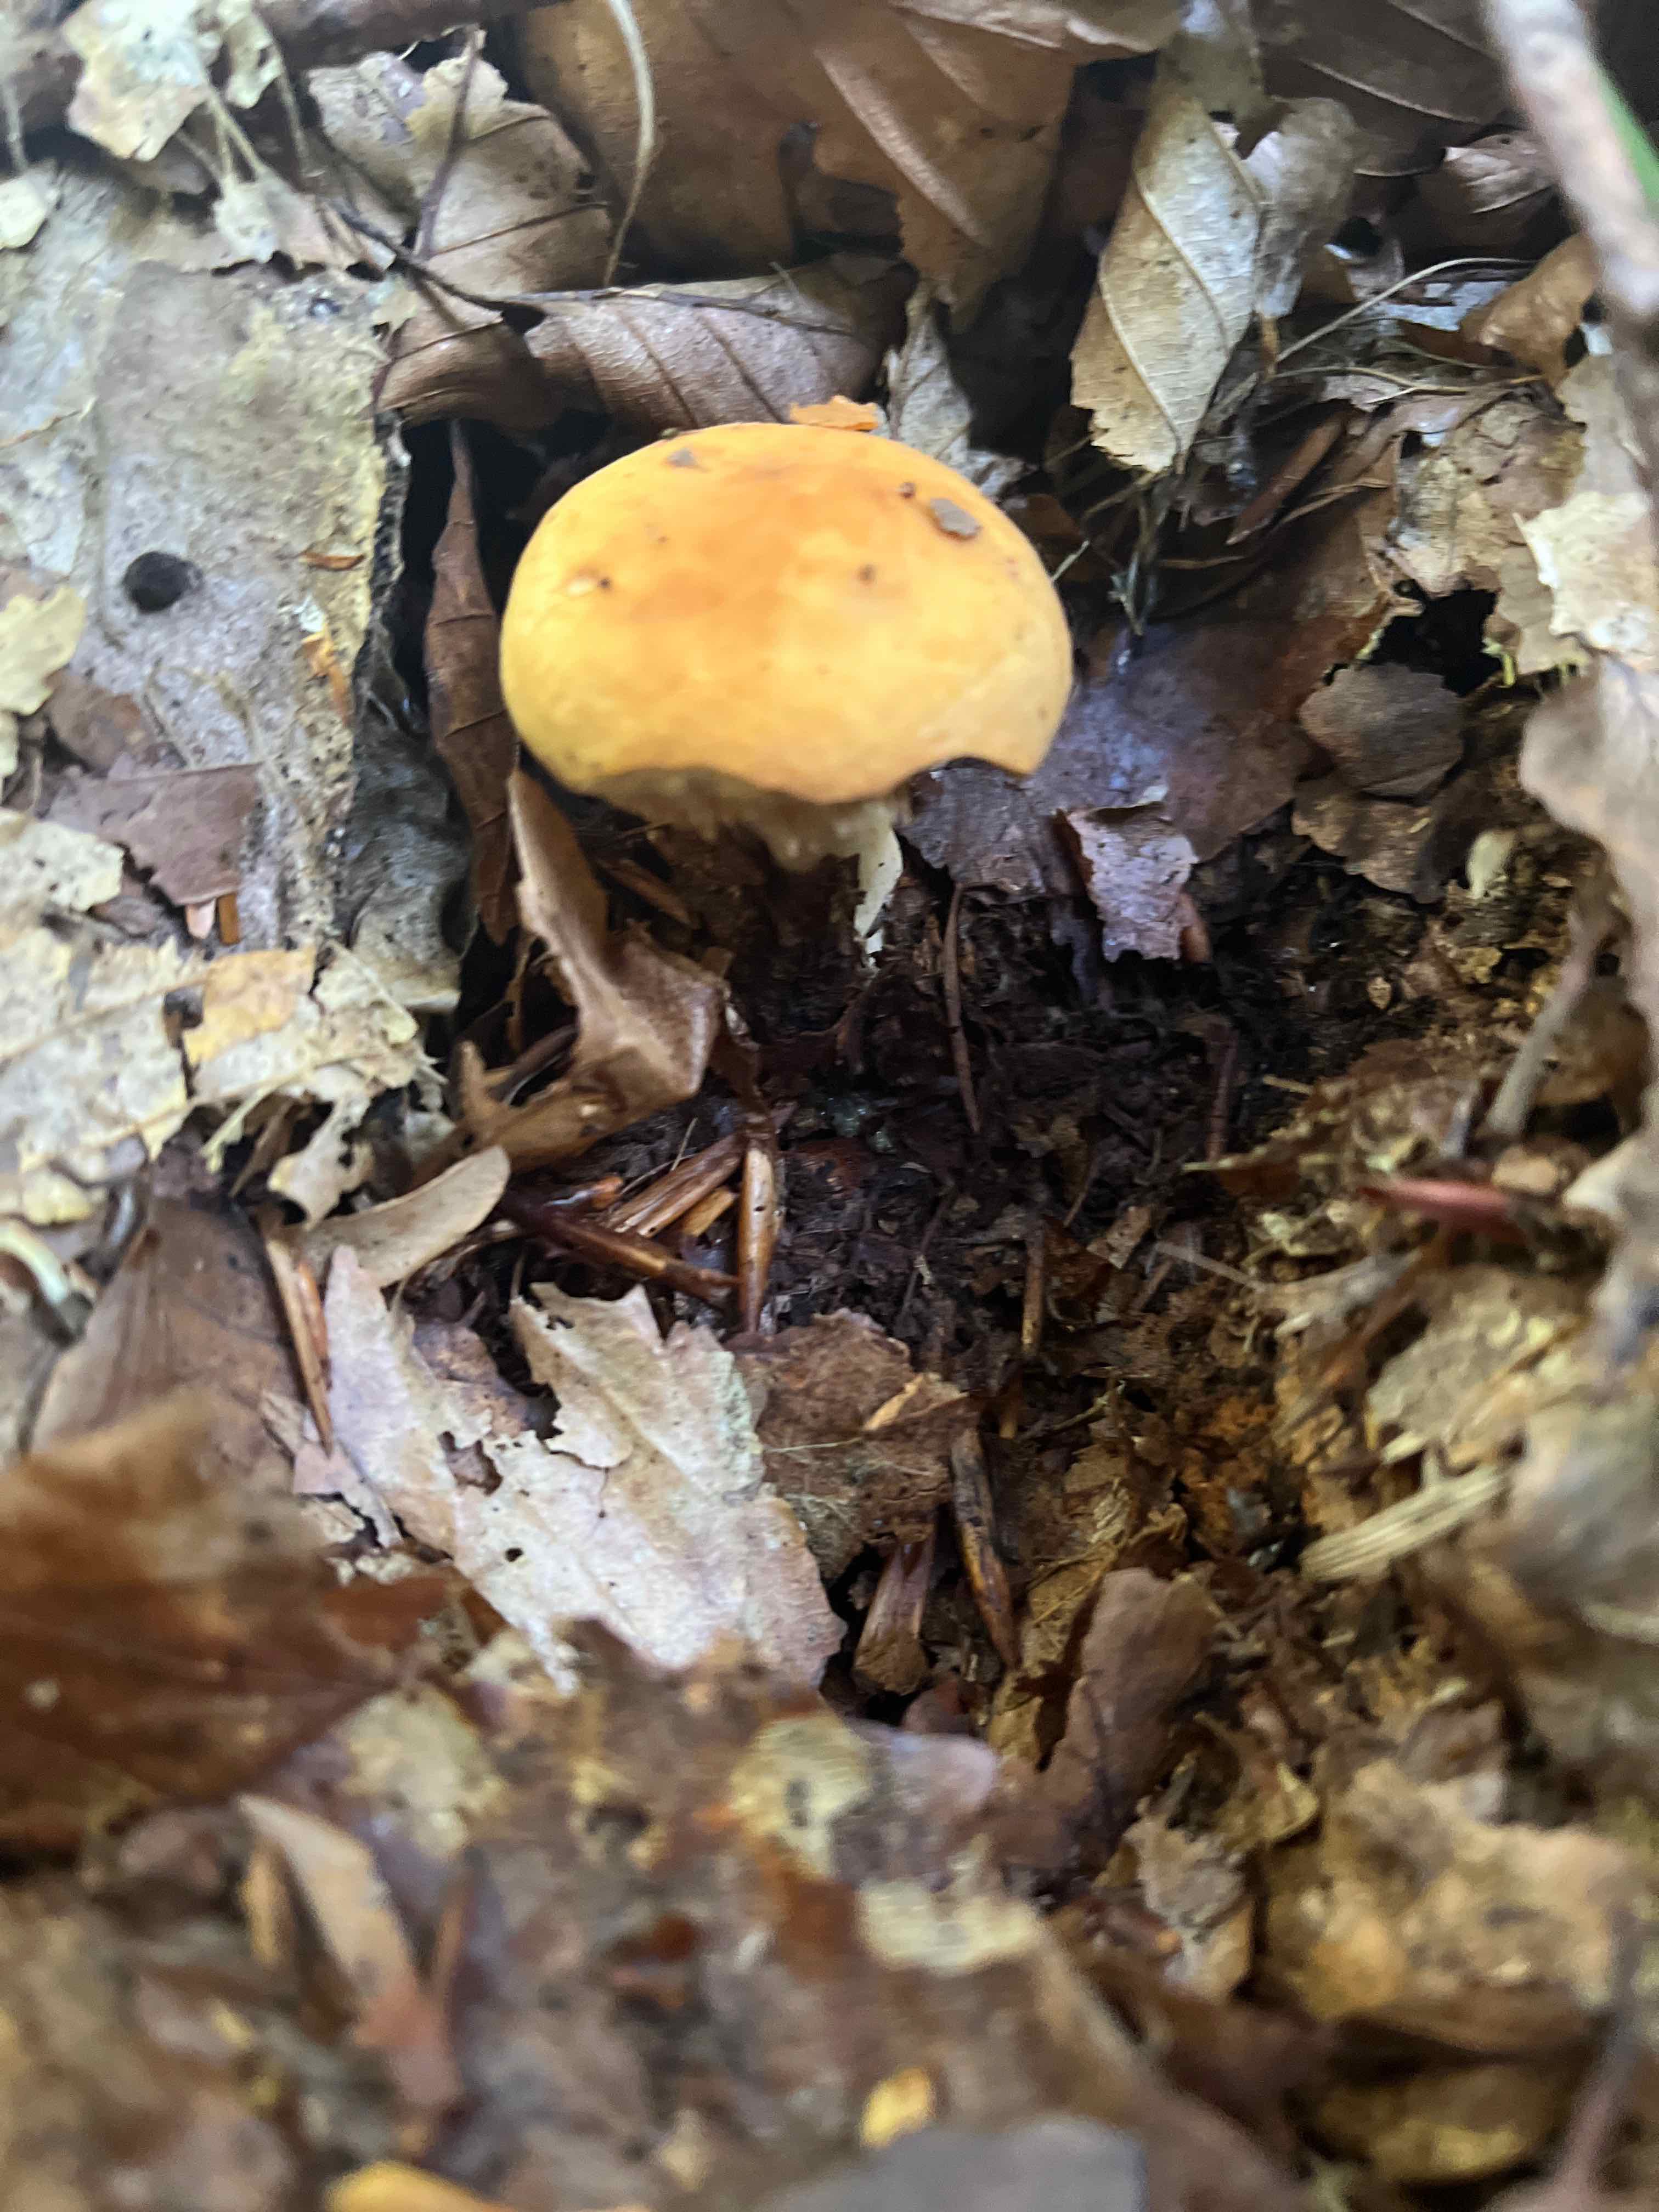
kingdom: Fungi
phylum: Basidiomycota
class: Agaricomycetes
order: Russulales
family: Russulaceae
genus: Russula
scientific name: Russula fellea
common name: galde-skørhat
